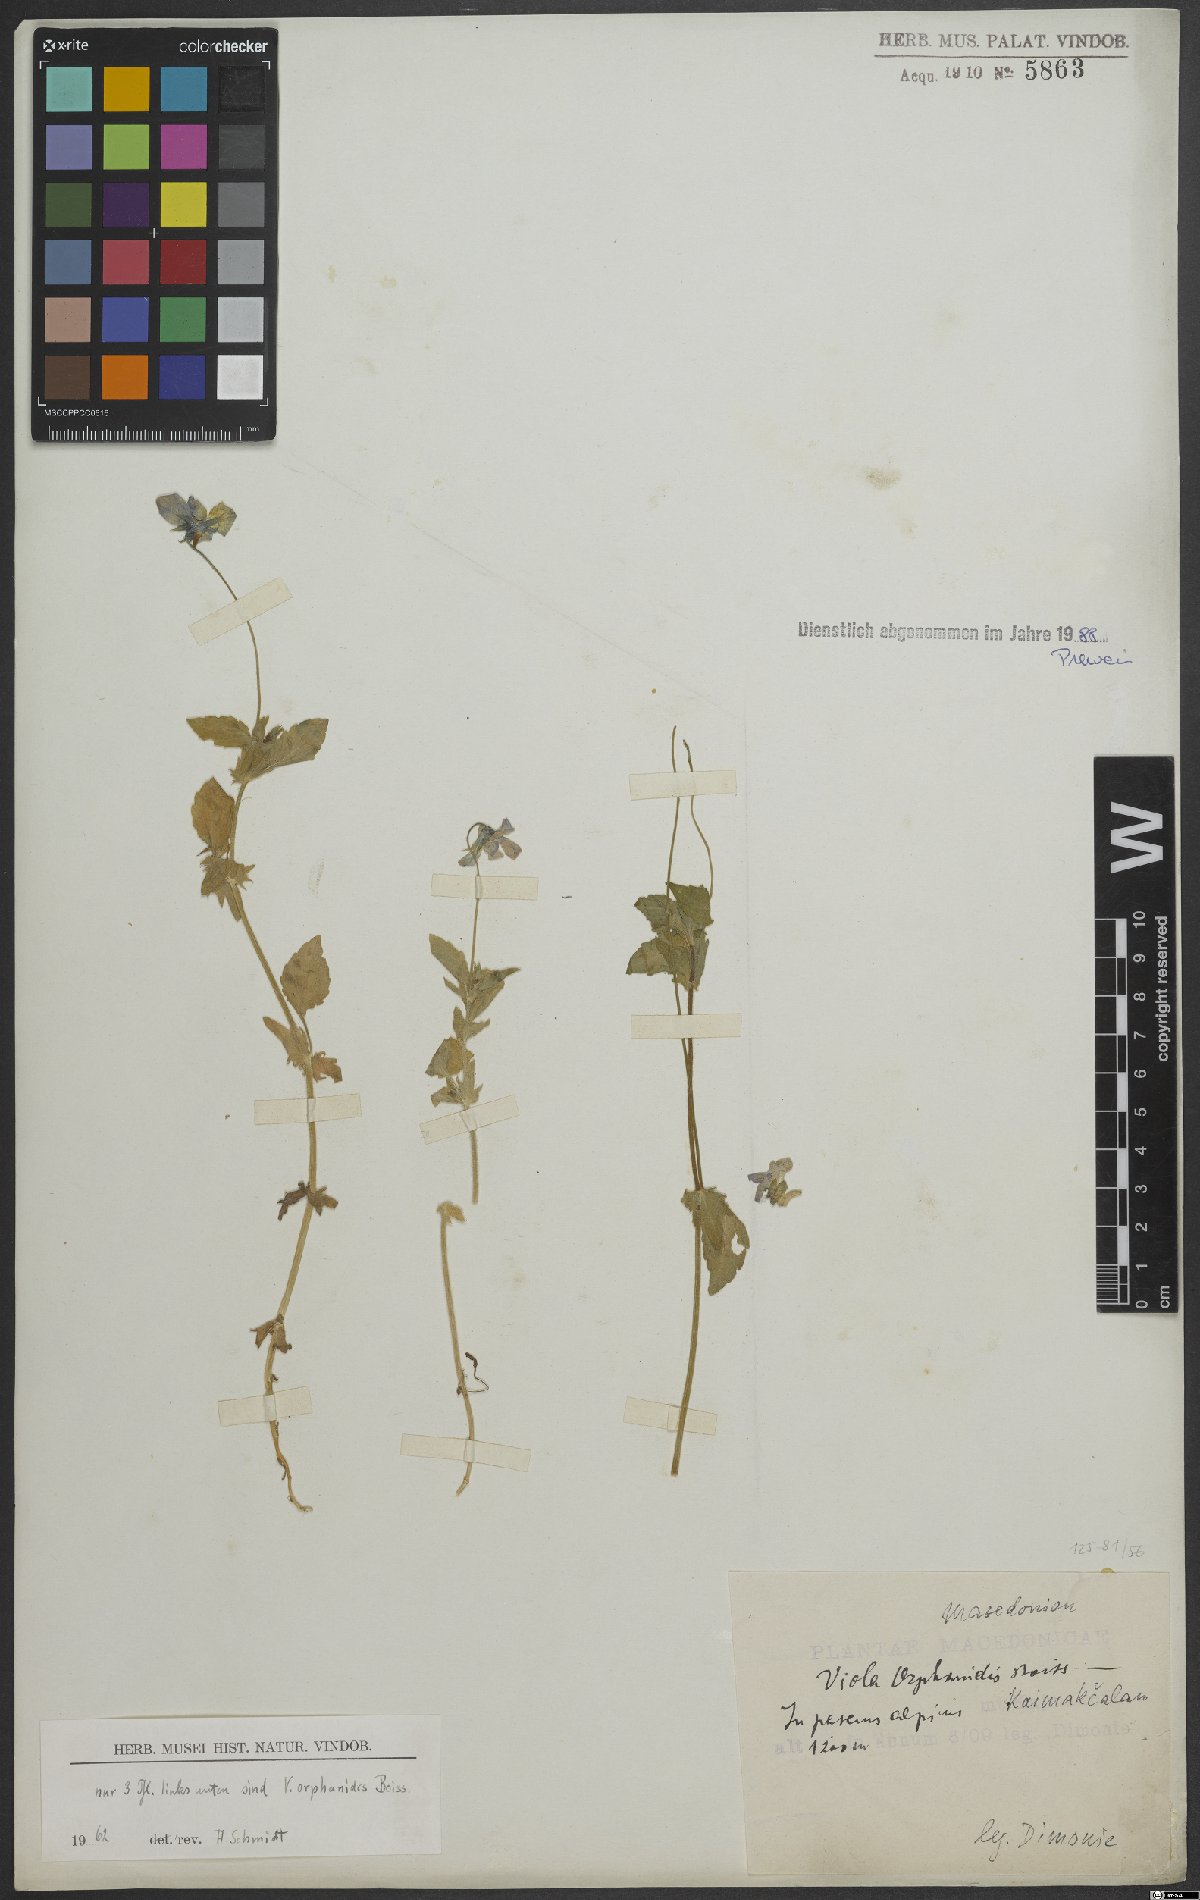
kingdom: Plantae
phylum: Tracheophyta
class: Magnoliopsida
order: Malpighiales
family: Violaceae
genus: Viola
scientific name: Viola orphanidis
